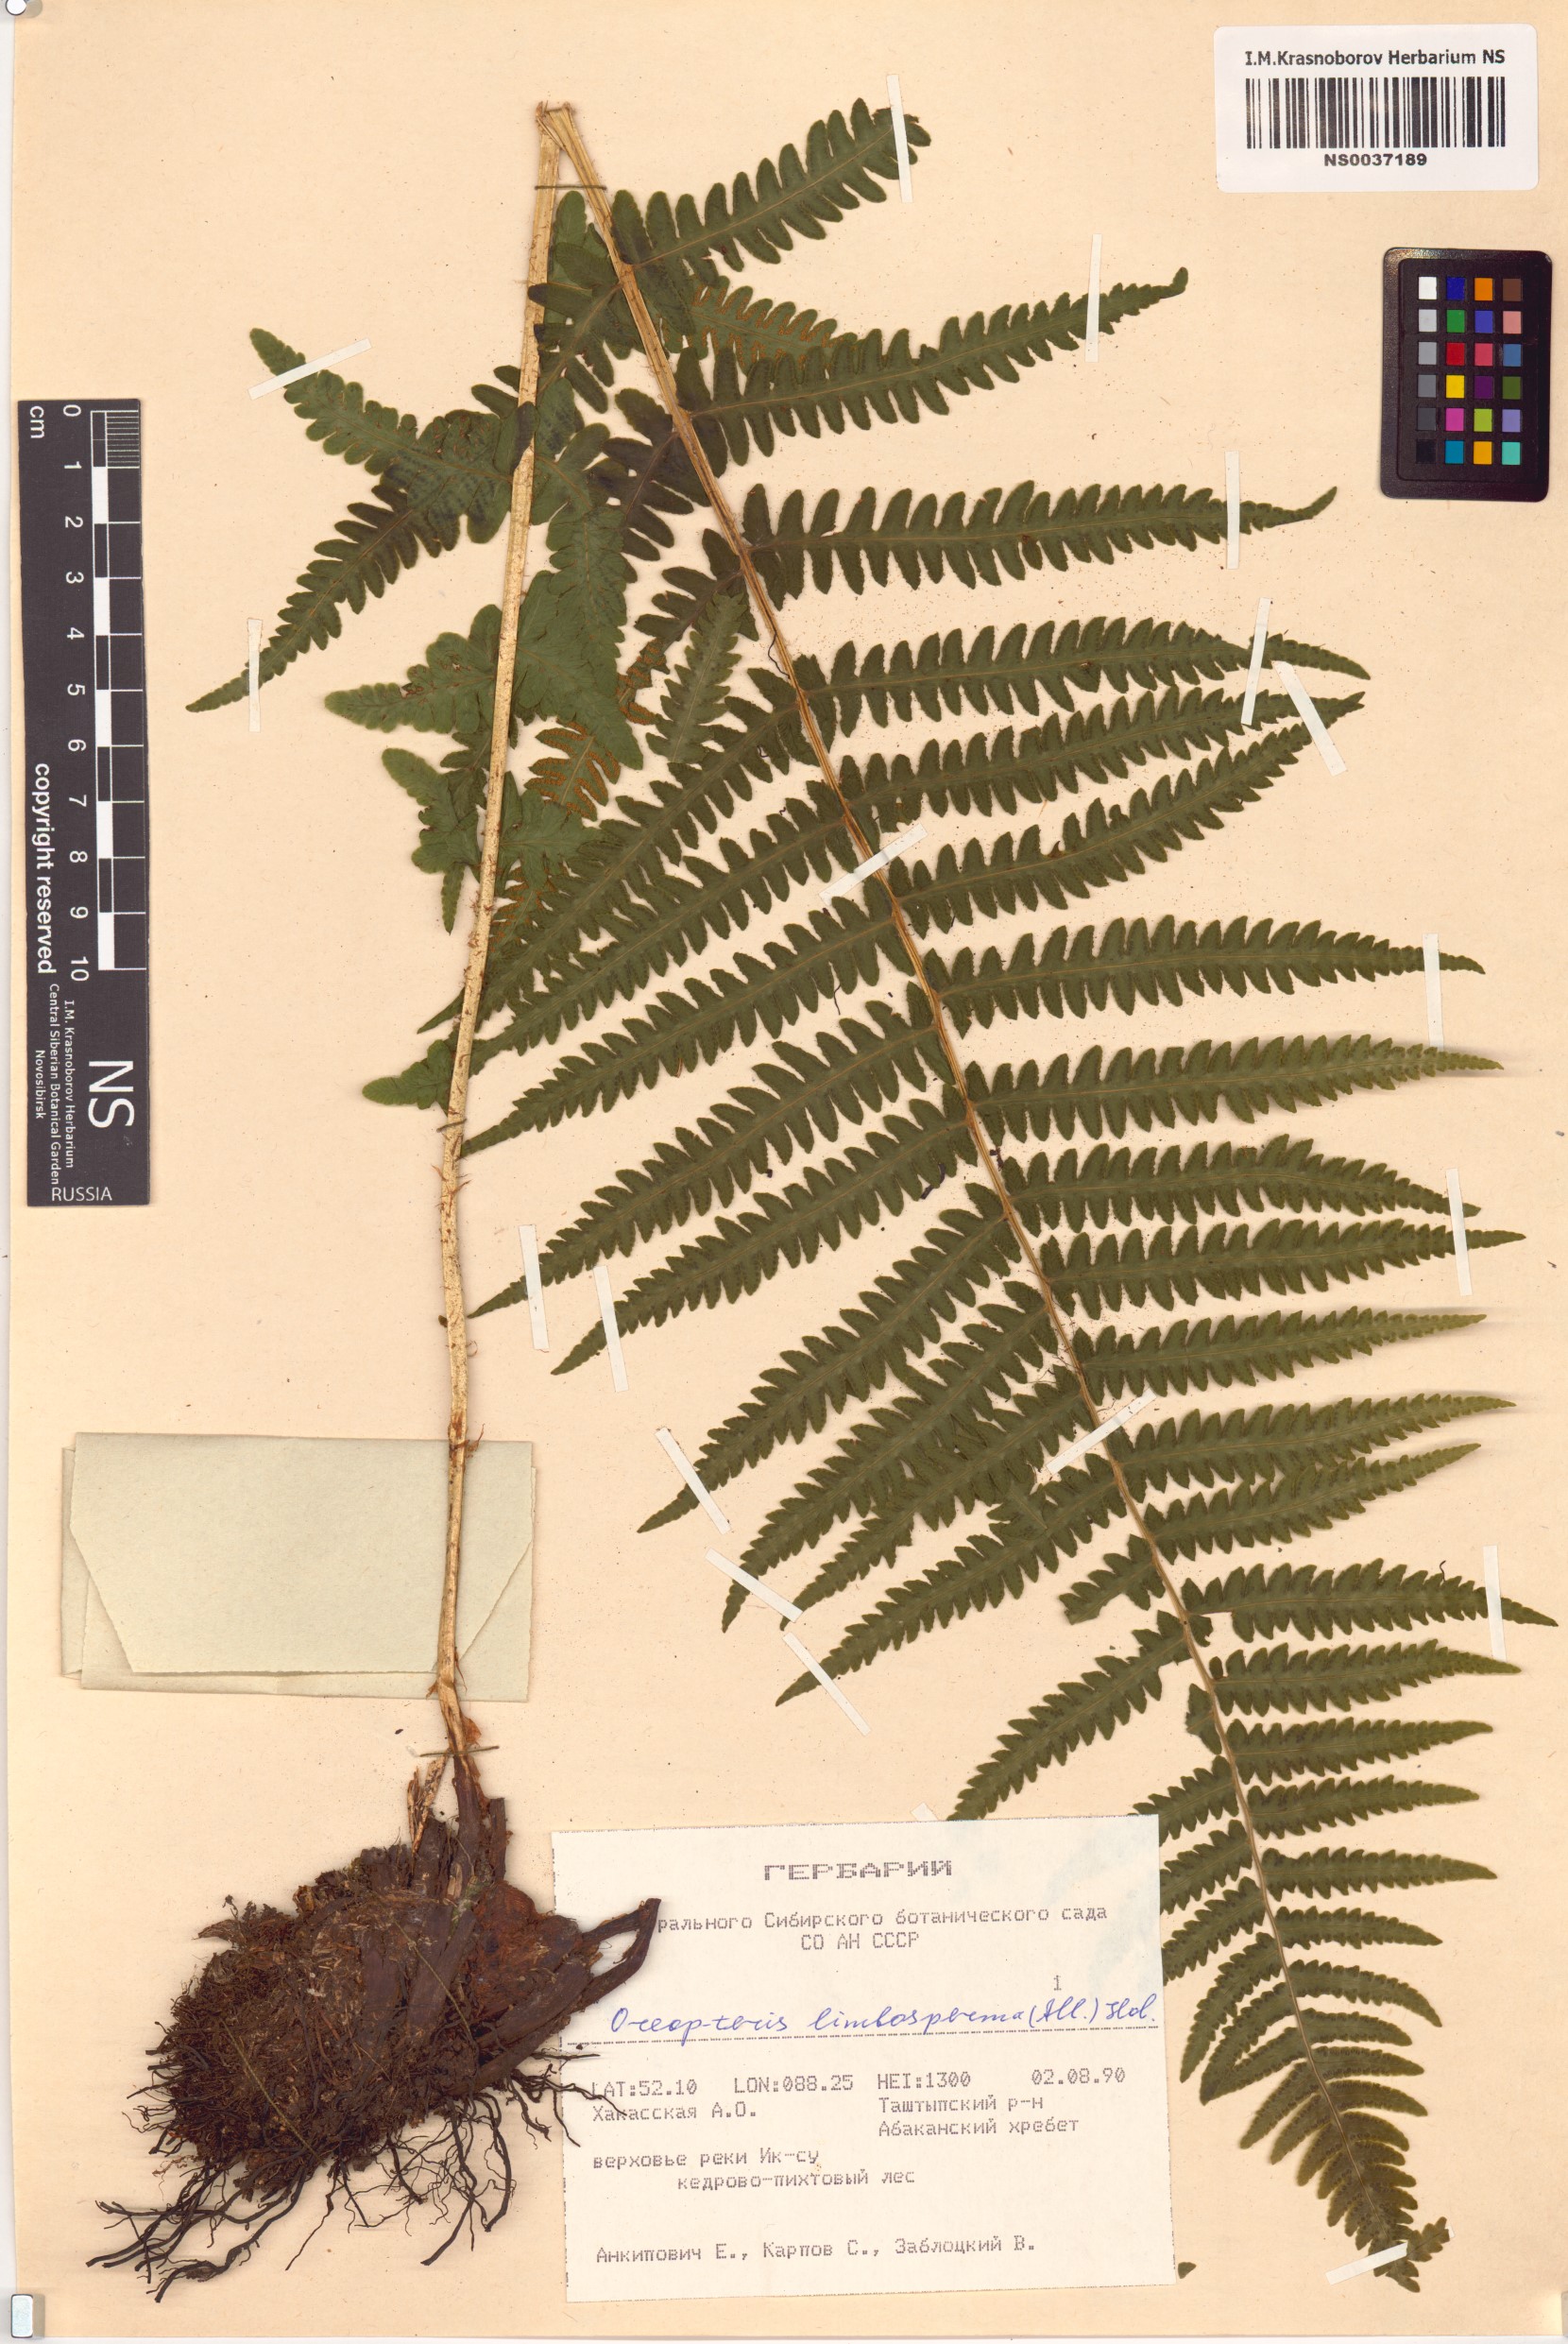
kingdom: Plantae
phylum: Tracheophyta
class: Polypodiopsida
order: Polypodiales
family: Thelypteridaceae
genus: Oreopteris
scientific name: Oreopteris limbosperma
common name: Lemon-scented fern
